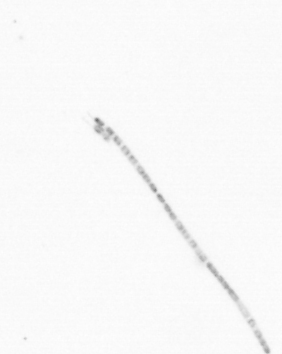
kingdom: Animalia
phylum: Arthropoda
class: Copepoda
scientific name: Copepoda
